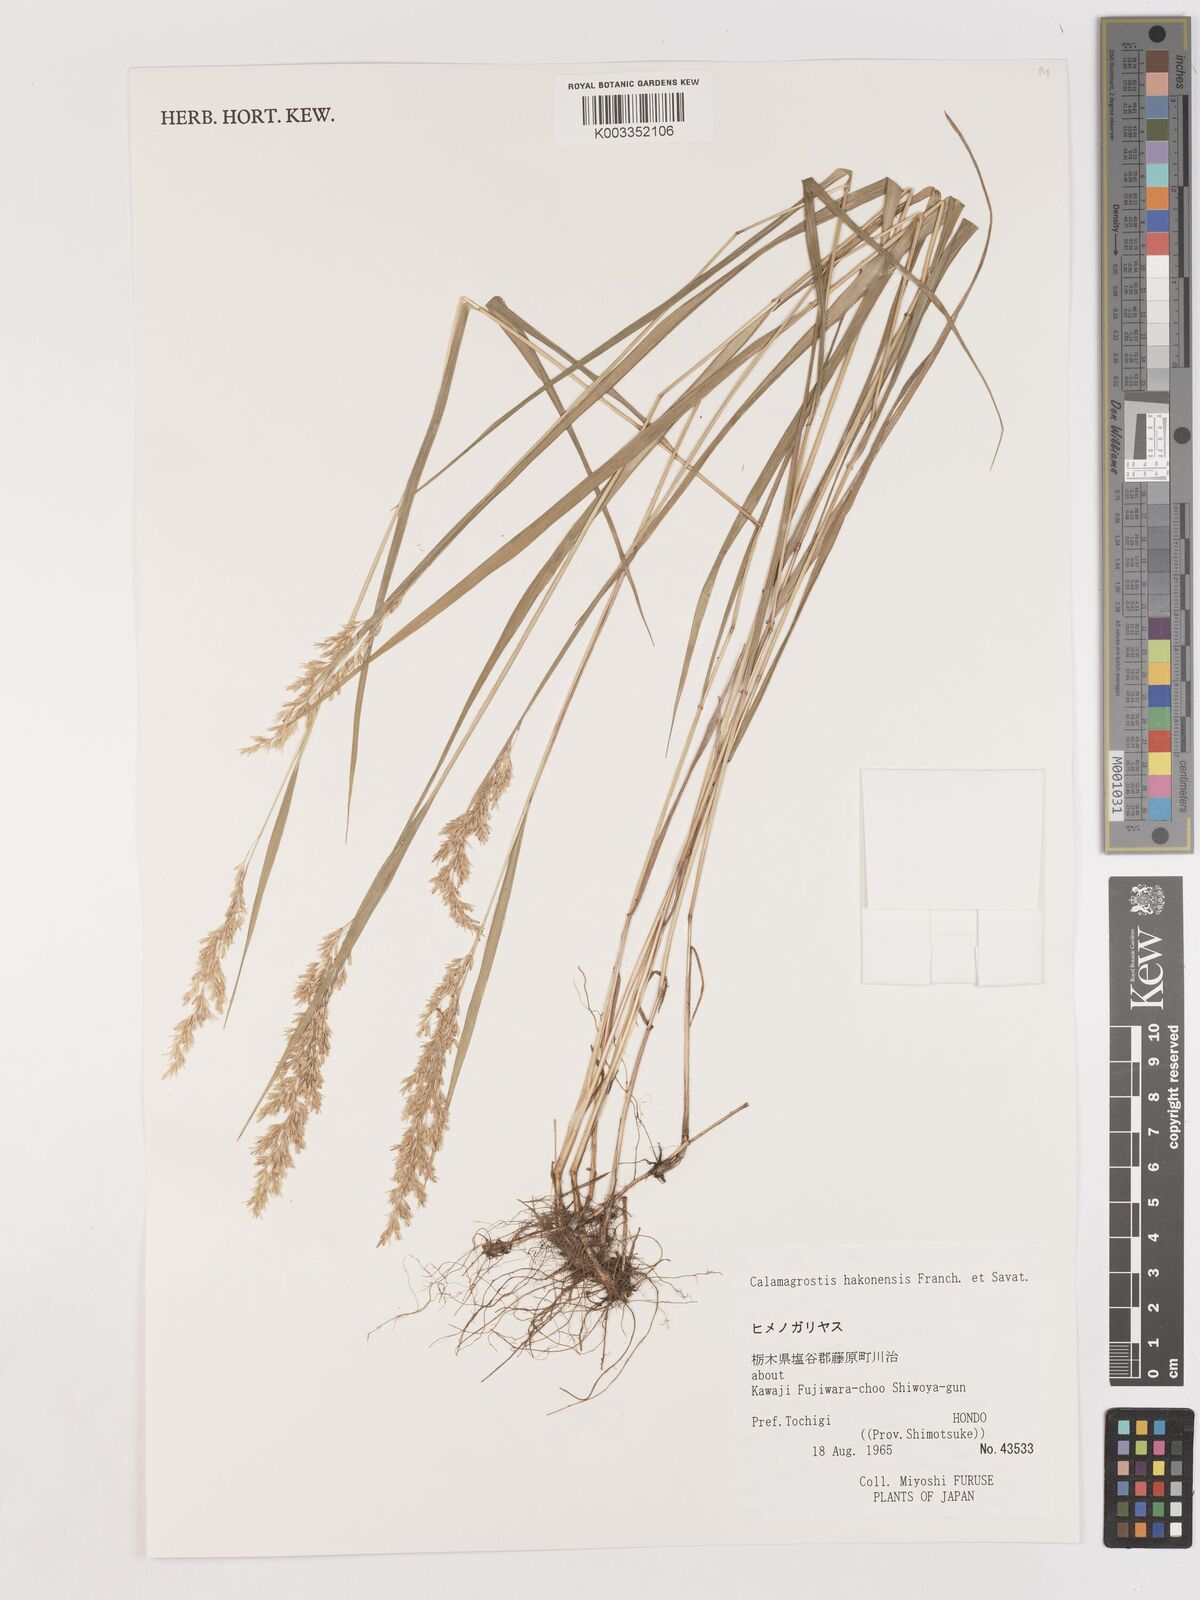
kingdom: Plantae
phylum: Tracheophyta
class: Liliopsida
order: Poales
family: Poaceae
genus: Calamagrostis
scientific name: Calamagrostis hakonensis
